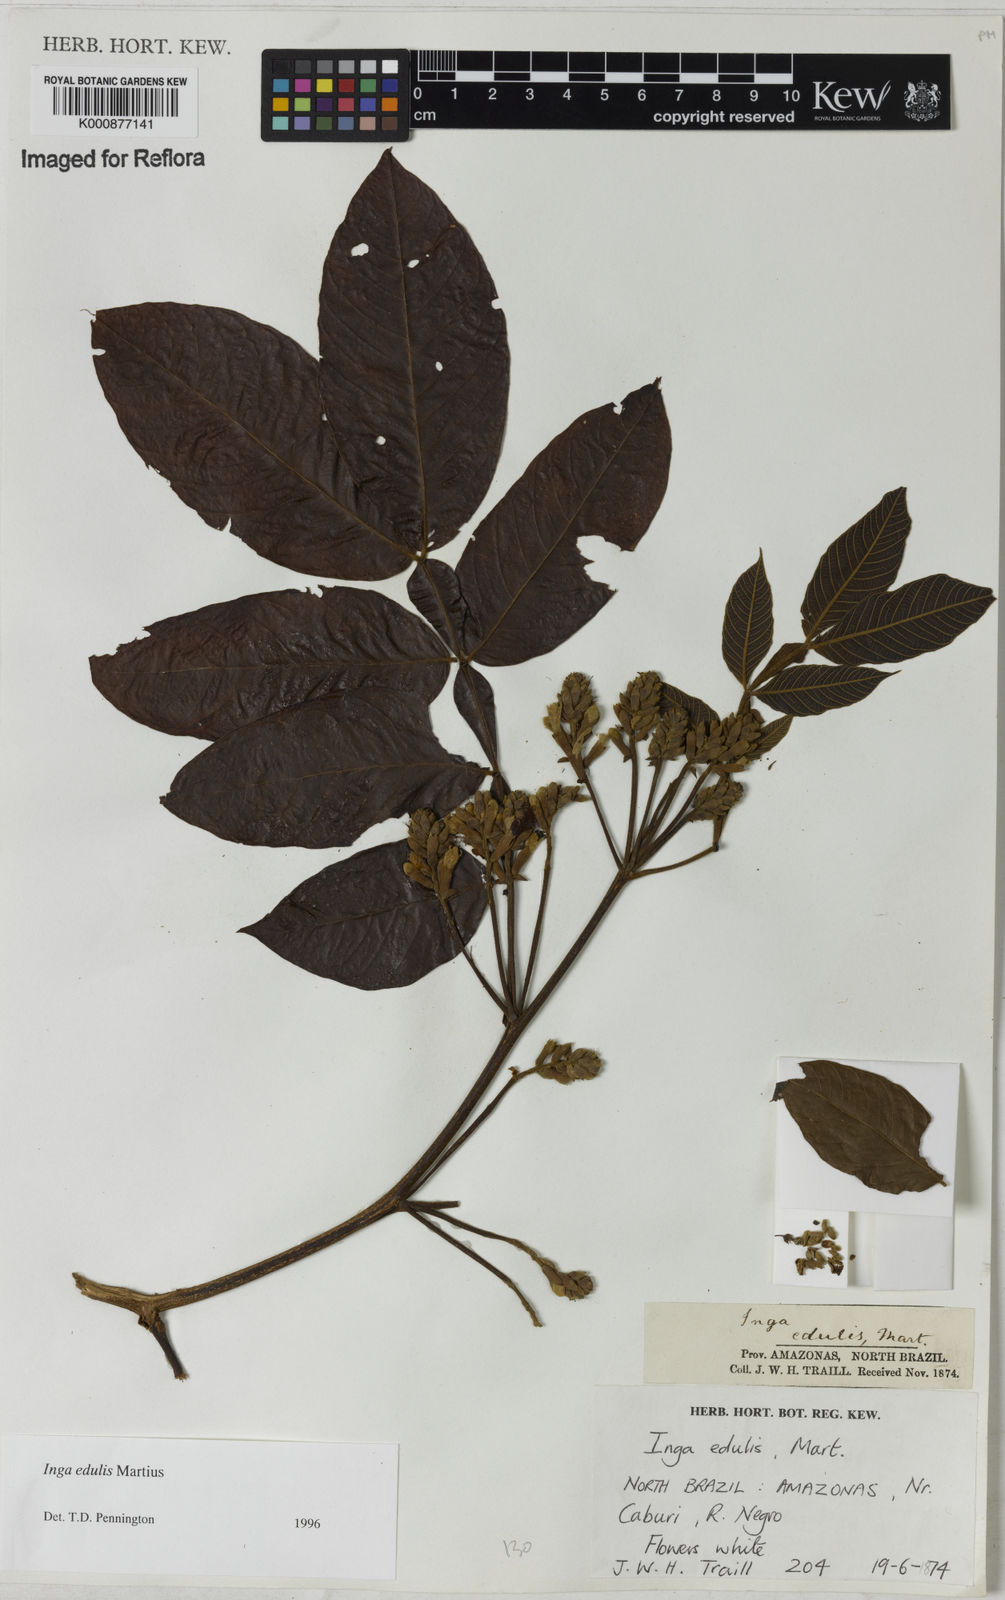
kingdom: Plantae
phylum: Tracheophyta
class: Magnoliopsida
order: Fabales
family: Fabaceae
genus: Inga
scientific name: Inga edulis
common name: Ice cream bean
